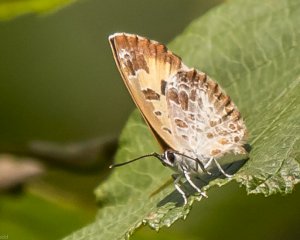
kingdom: Animalia
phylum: Arthropoda
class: Insecta
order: Lepidoptera
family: Lycaenidae
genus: Feniseca
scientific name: Feniseca tarquinius
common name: Harvester
